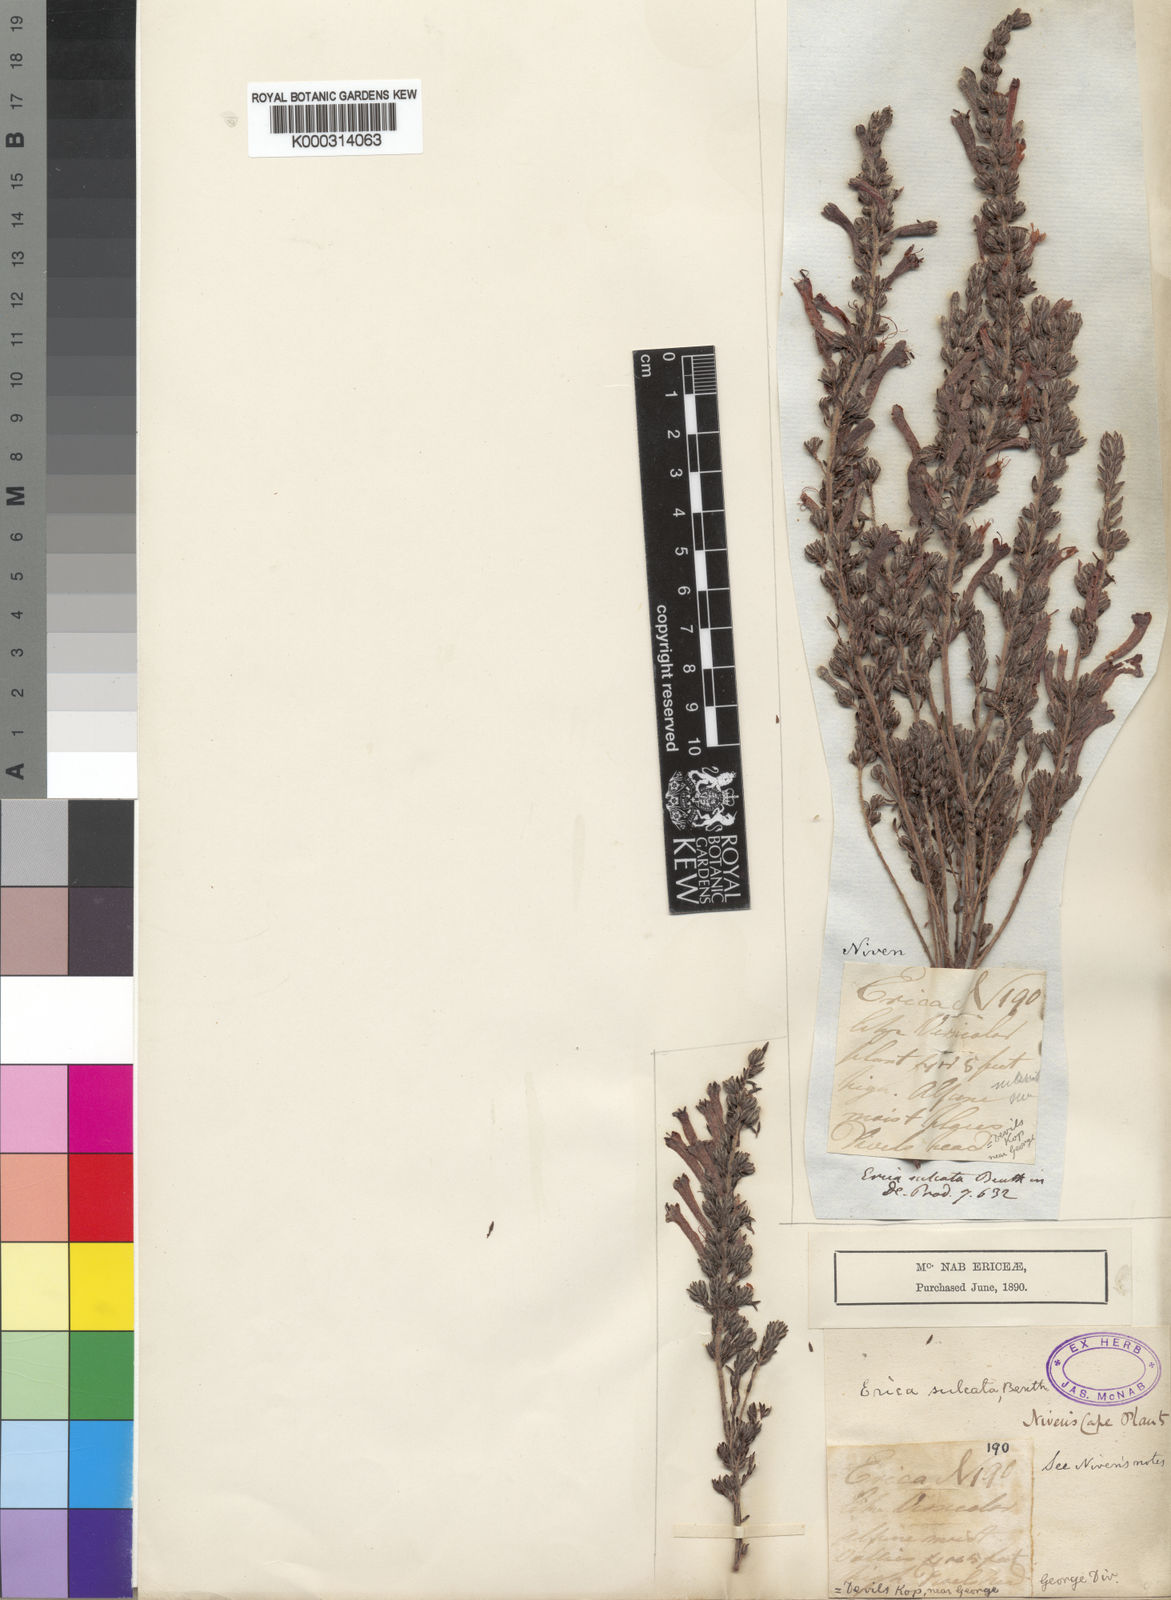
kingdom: Plantae
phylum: Tracheophyta
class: Magnoliopsida
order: Ericales
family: Ericaceae
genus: Erica
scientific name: Erica curviflora
